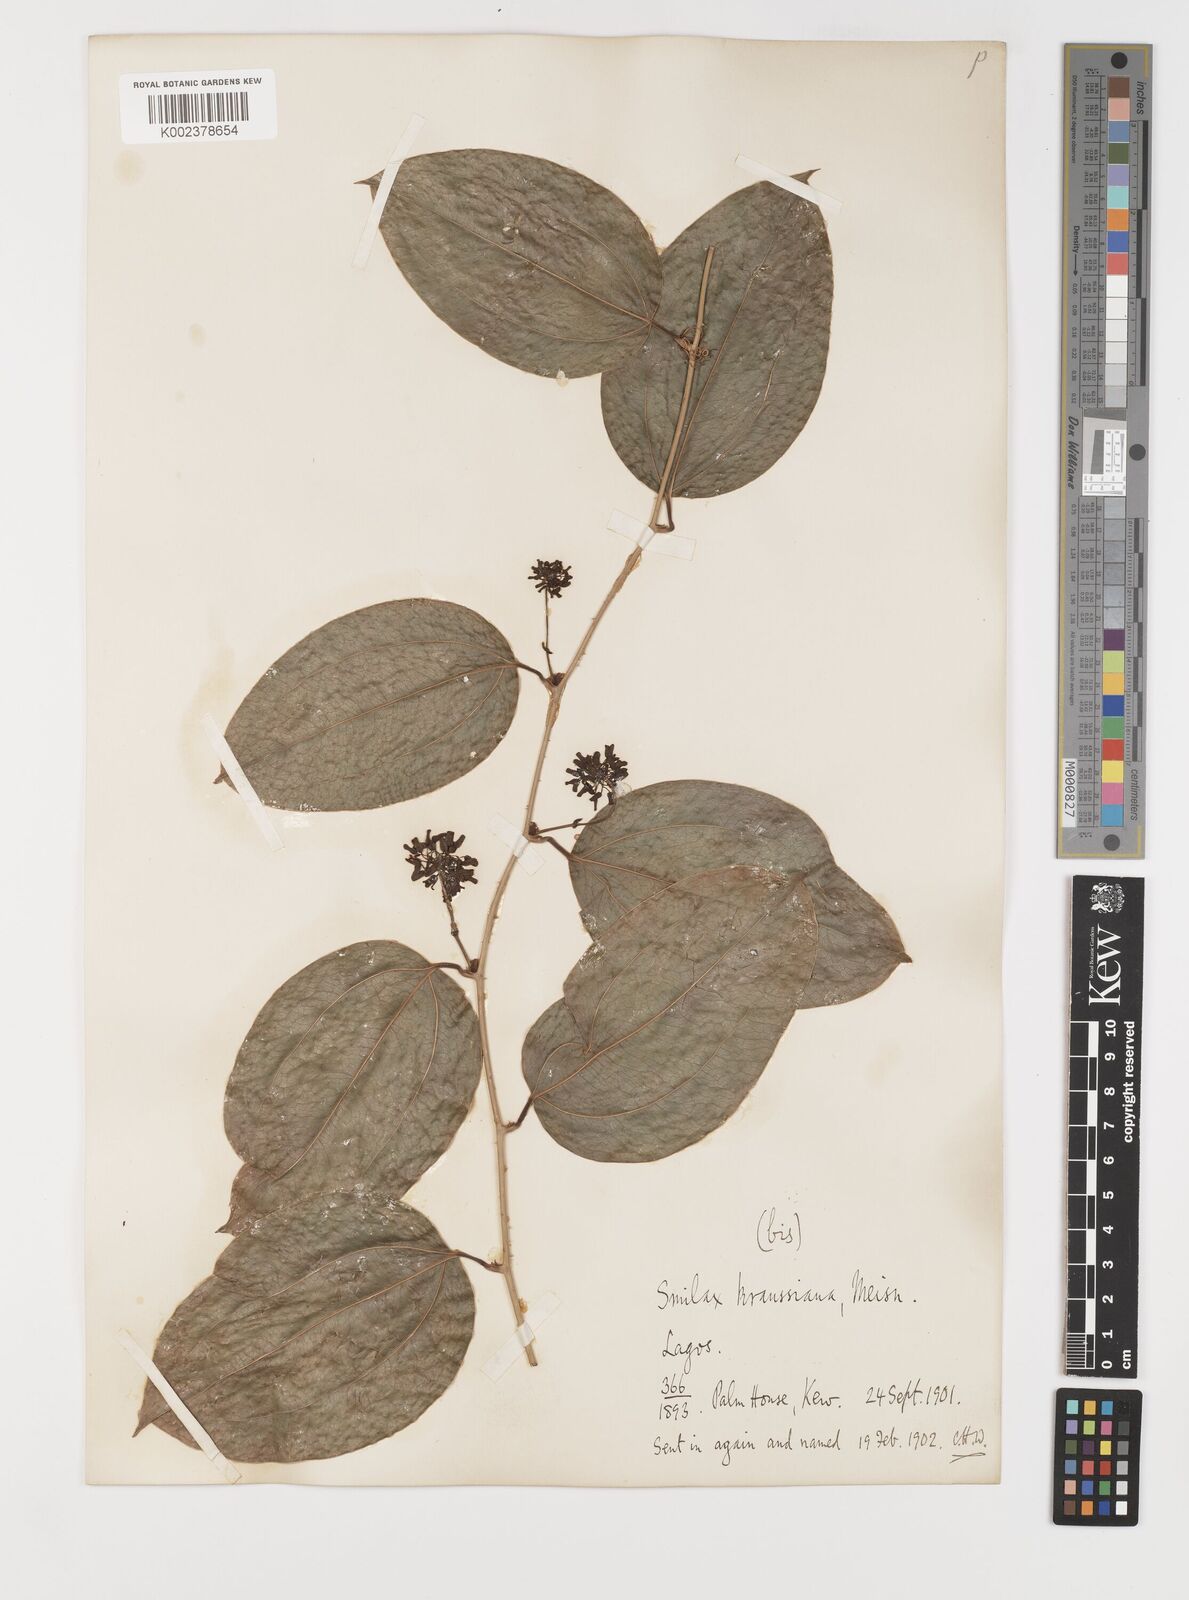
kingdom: Plantae
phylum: Tracheophyta
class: Liliopsida
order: Liliales
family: Smilacaceae
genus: Smilax
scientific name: Smilax anceps
